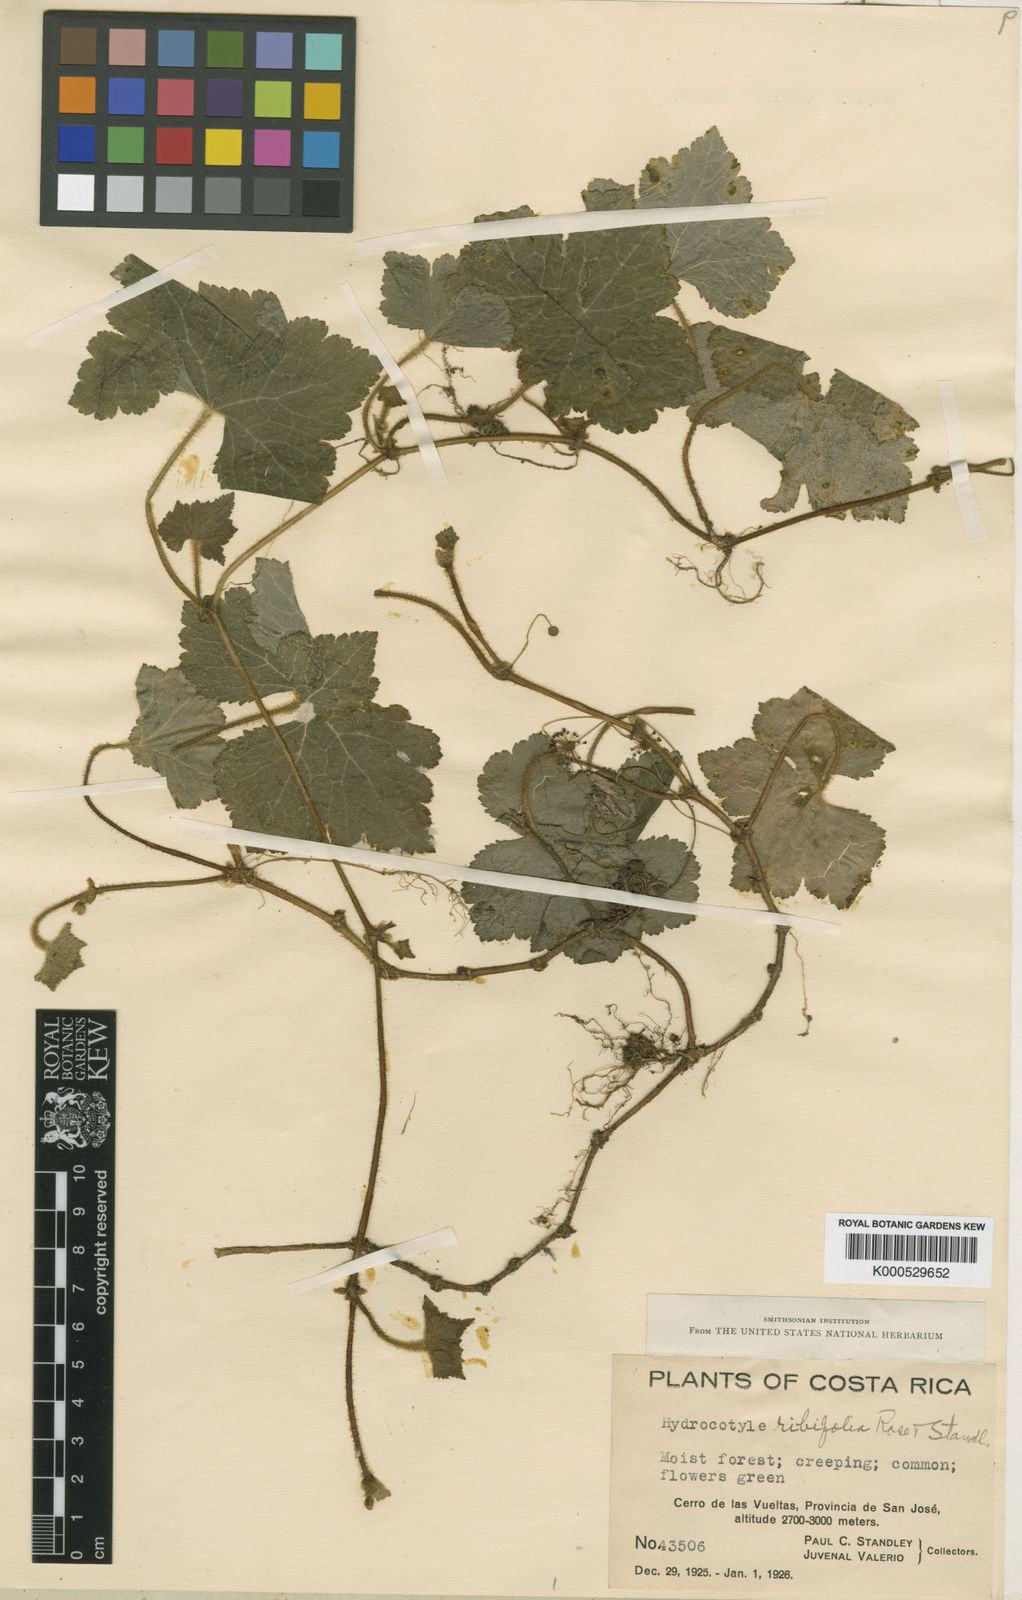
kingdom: Plantae
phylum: Tracheophyta
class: Magnoliopsida
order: Apiales
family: Araliaceae
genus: Hydrocotyle
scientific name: Hydrocotyle ribifolia
